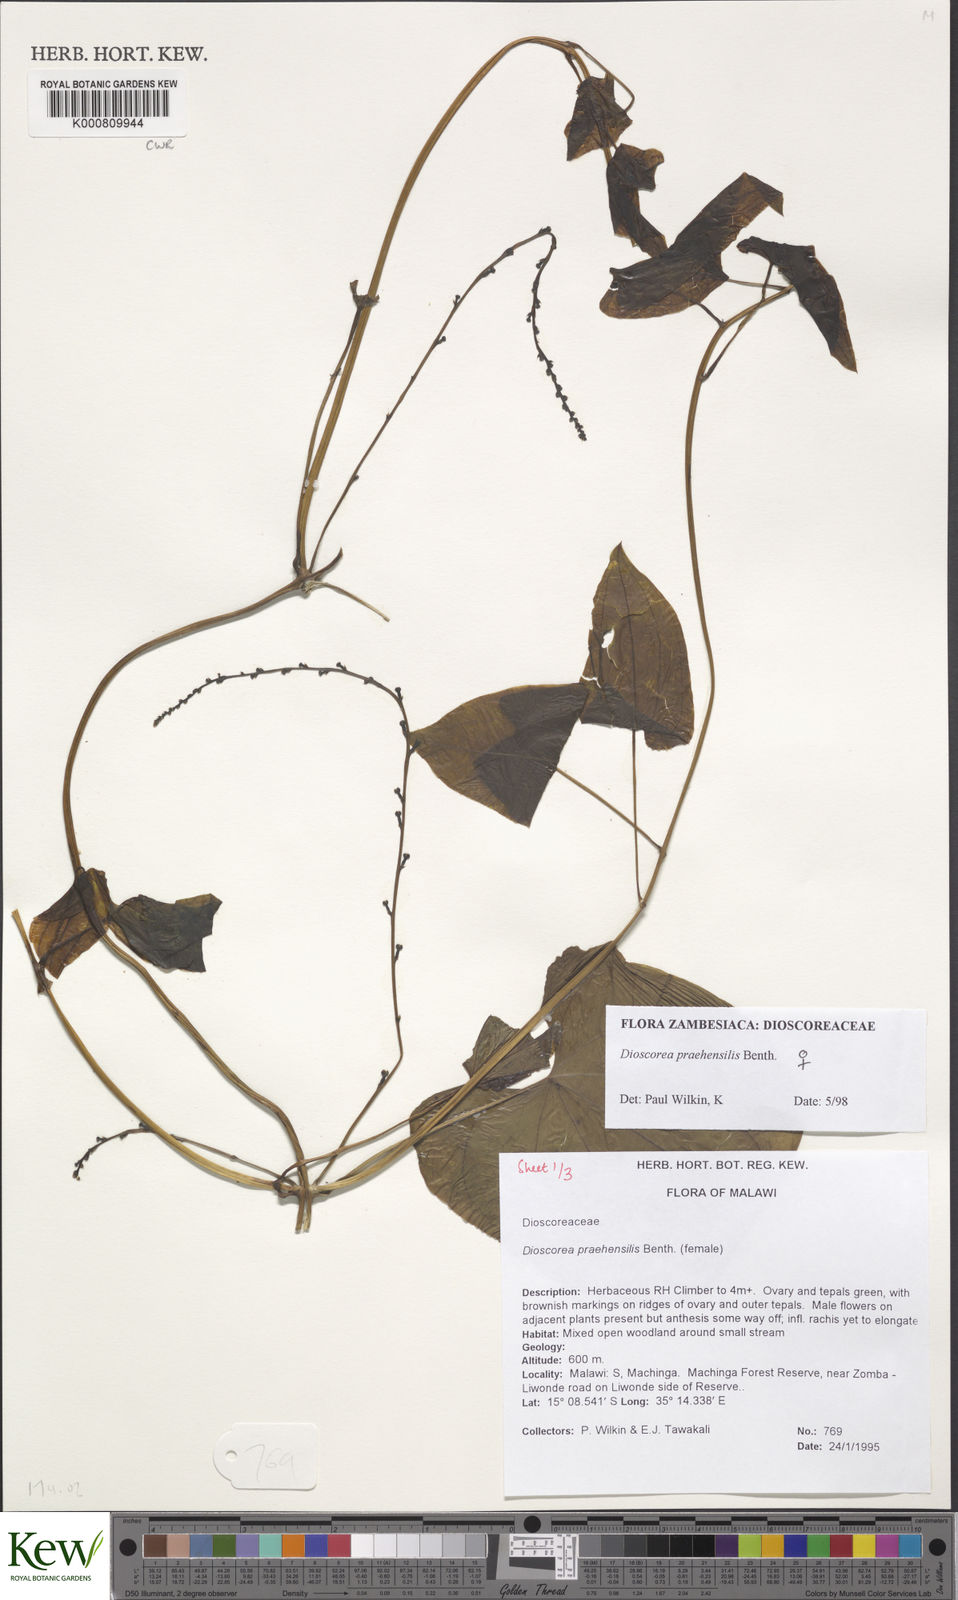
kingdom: Plantae
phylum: Tracheophyta
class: Liliopsida
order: Dioscoreales
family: Dioscoreaceae
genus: Dioscorea
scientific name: Dioscorea praehensilis
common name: Bush yam
